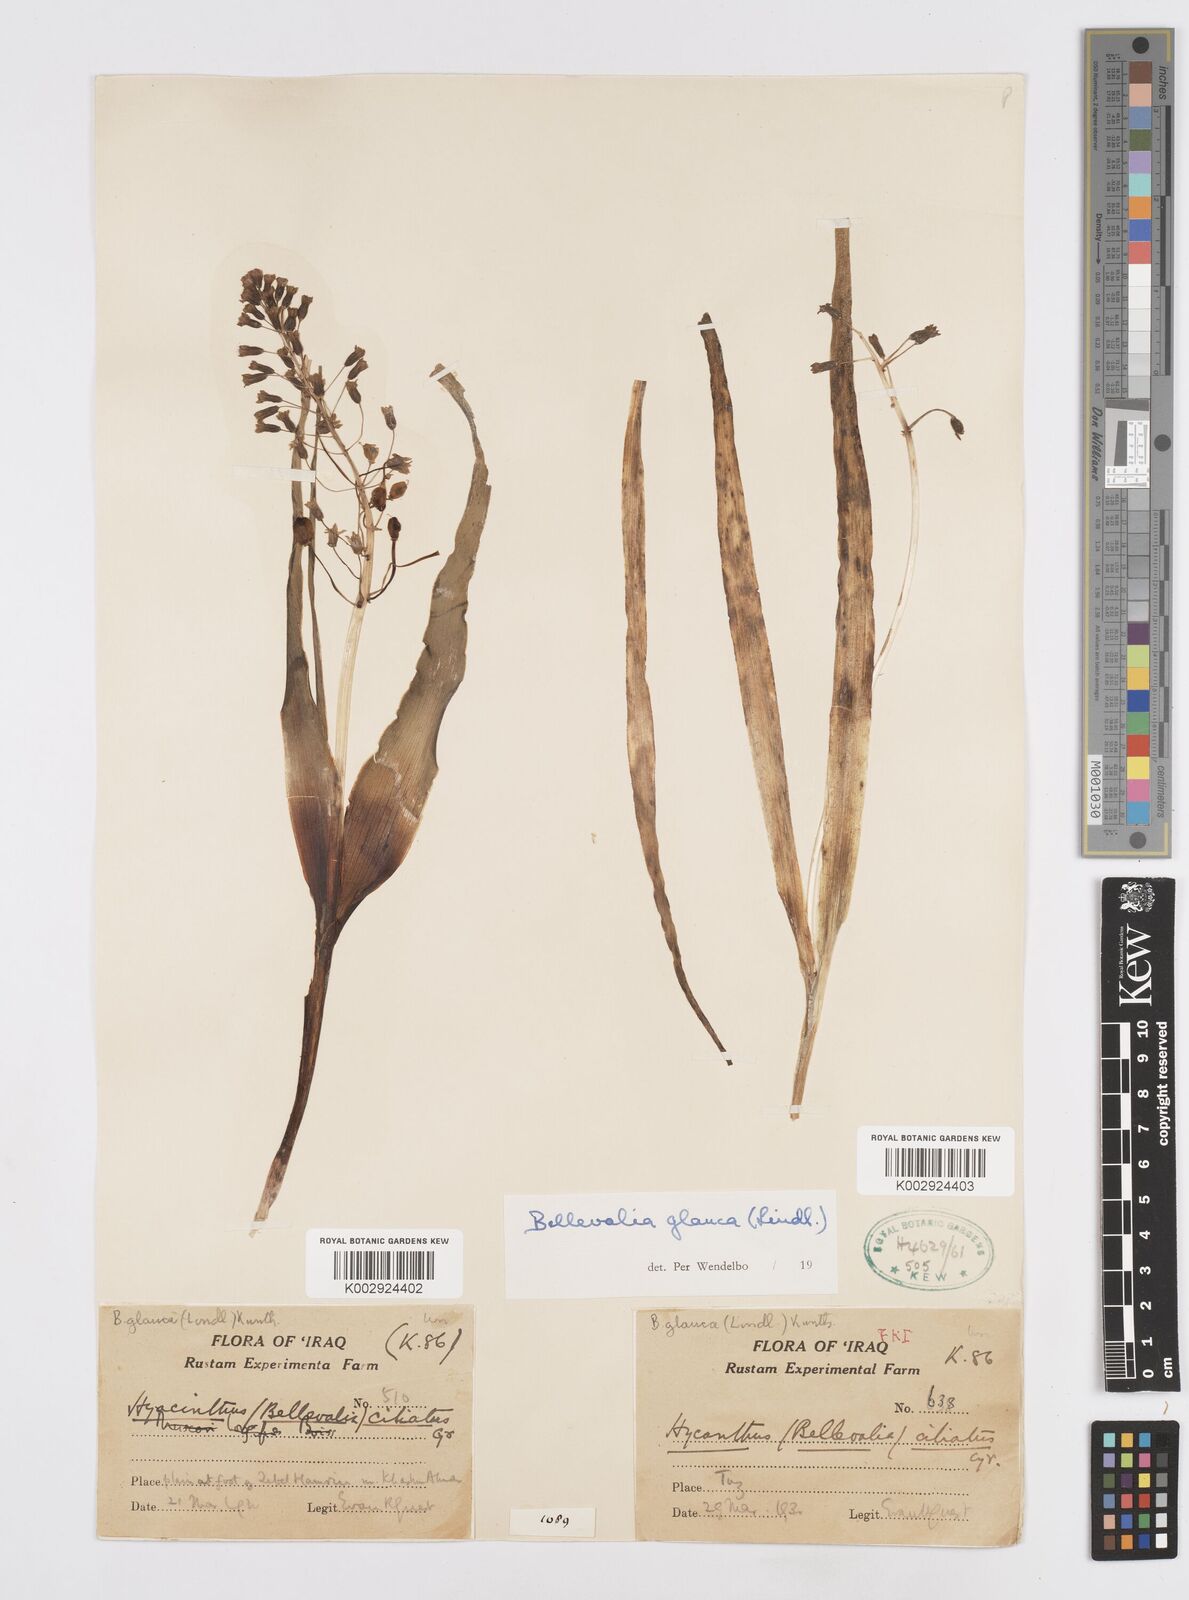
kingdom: Plantae
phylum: Tracheophyta
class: Liliopsida
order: Asparagales
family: Asparagaceae
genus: Bellevalia
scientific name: Bellevalia glauca
